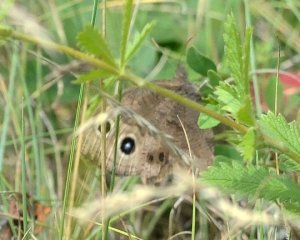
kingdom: Animalia
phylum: Arthropoda
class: Insecta
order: Lepidoptera
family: Nymphalidae
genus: Cercyonis
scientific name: Cercyonis pegala
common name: Common Wood-Nymph
